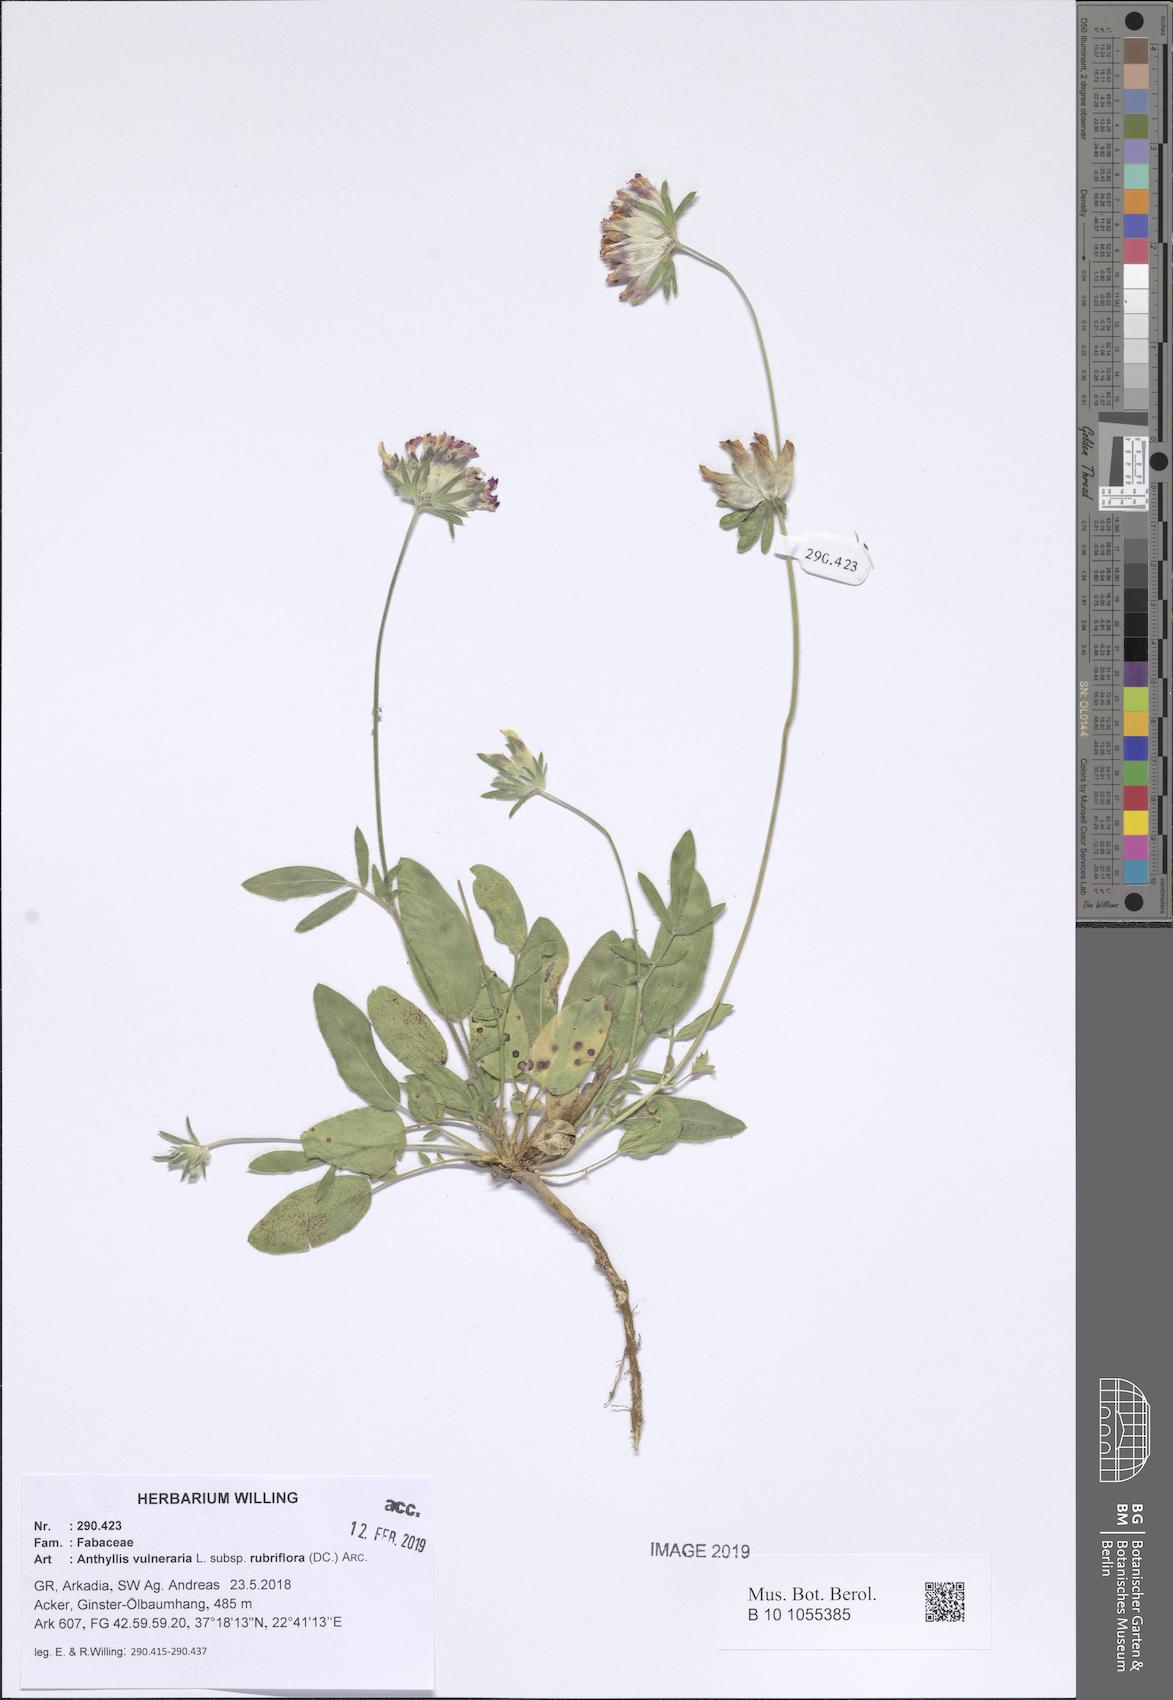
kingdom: Plantae
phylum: Tracheophyta
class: Magnoliopsida
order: Fabales
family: Fabaceae
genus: Anthyllis
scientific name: Anthyllis vulneraria
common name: Kidney vetch
